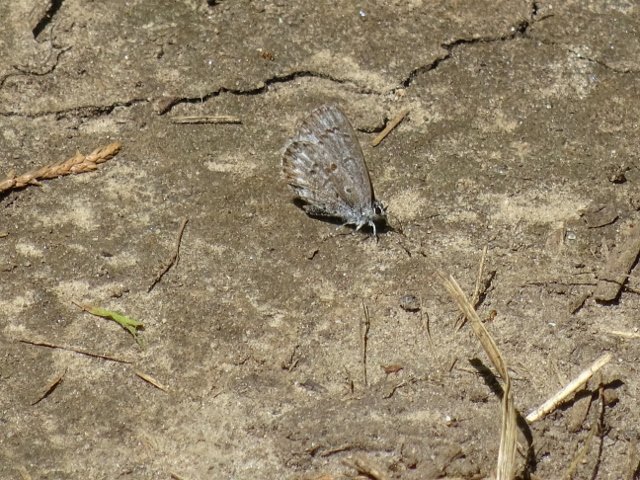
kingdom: Animalia
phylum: Arthropoda
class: Insecta
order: Lepidoptera
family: Lycaenidae
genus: Celastrina
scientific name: Celastrina
